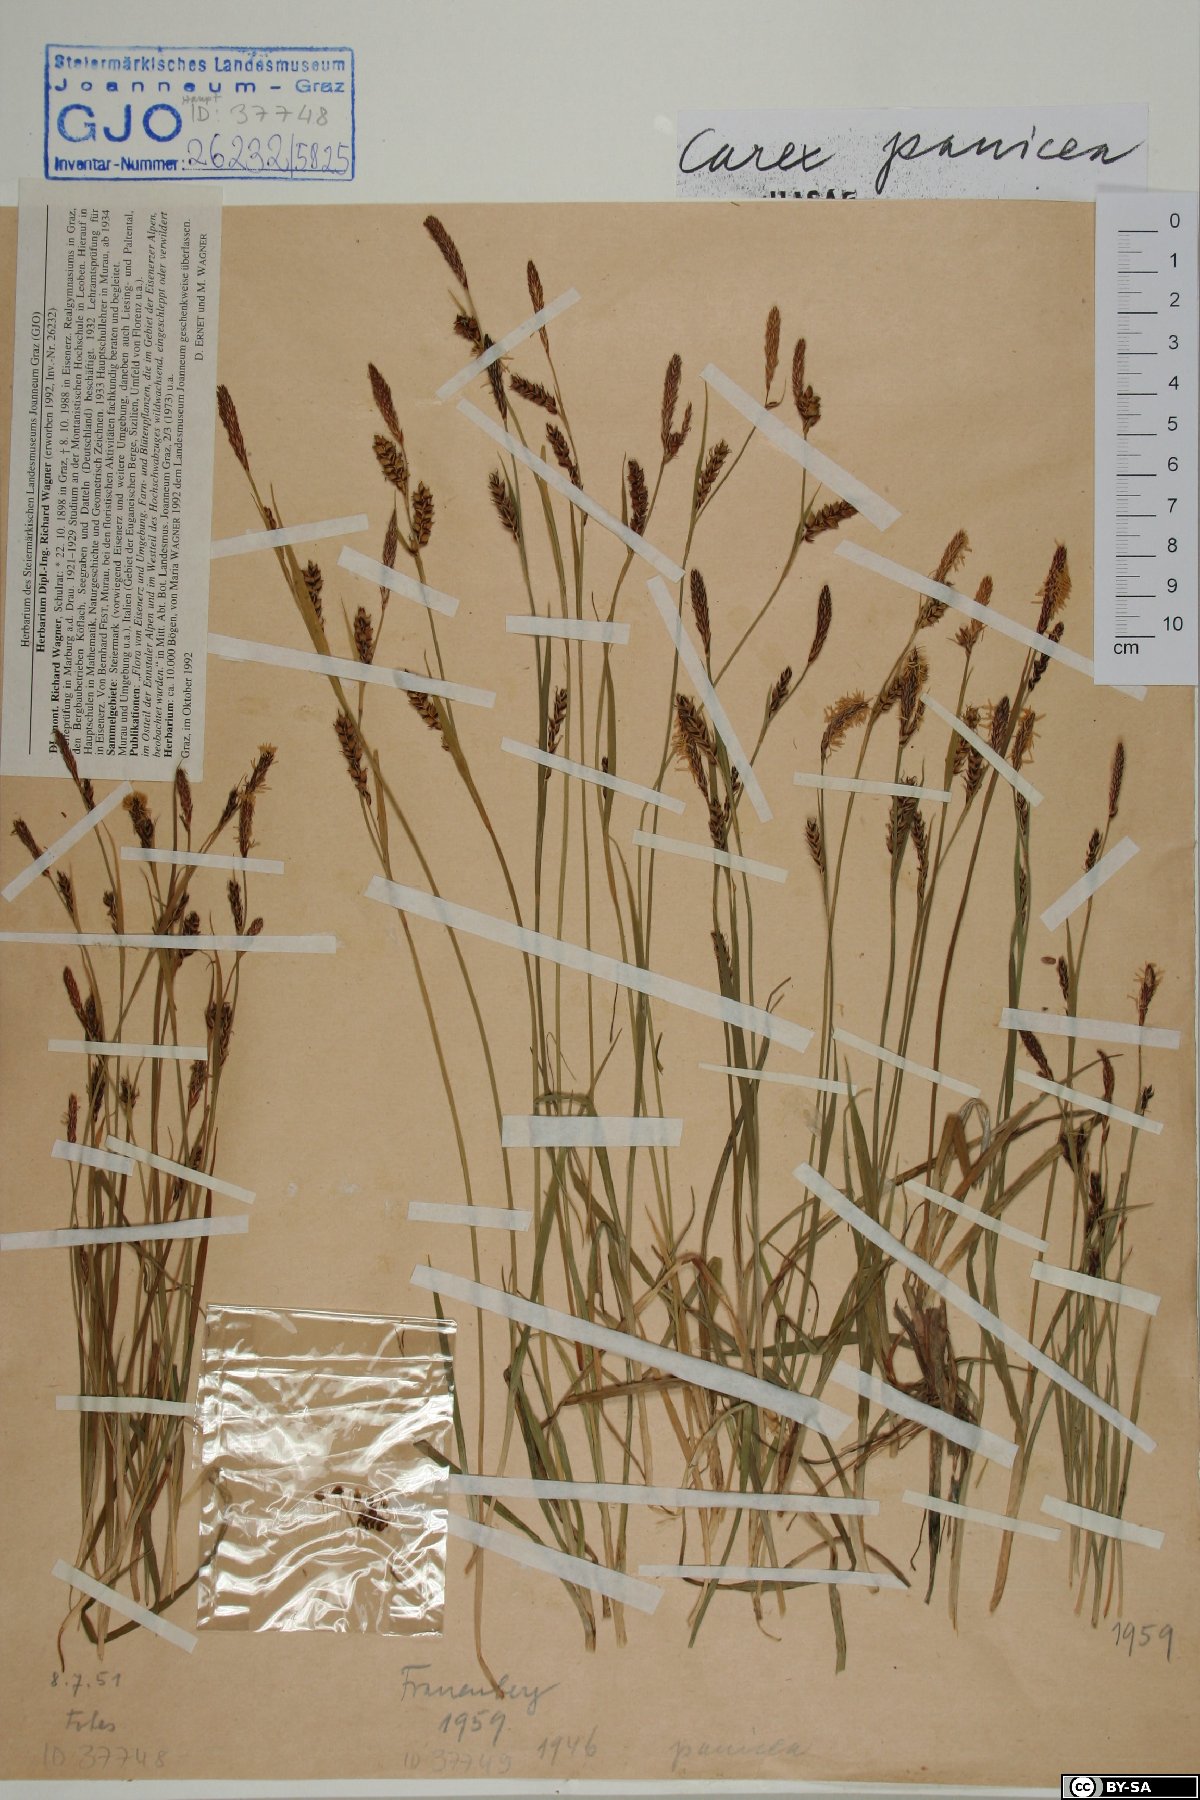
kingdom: Plantae
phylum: Tracheophyta
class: Liliopsida
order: Poales
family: Cyperaceae
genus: Carex
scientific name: Carex panicea
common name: Carnation sedge
